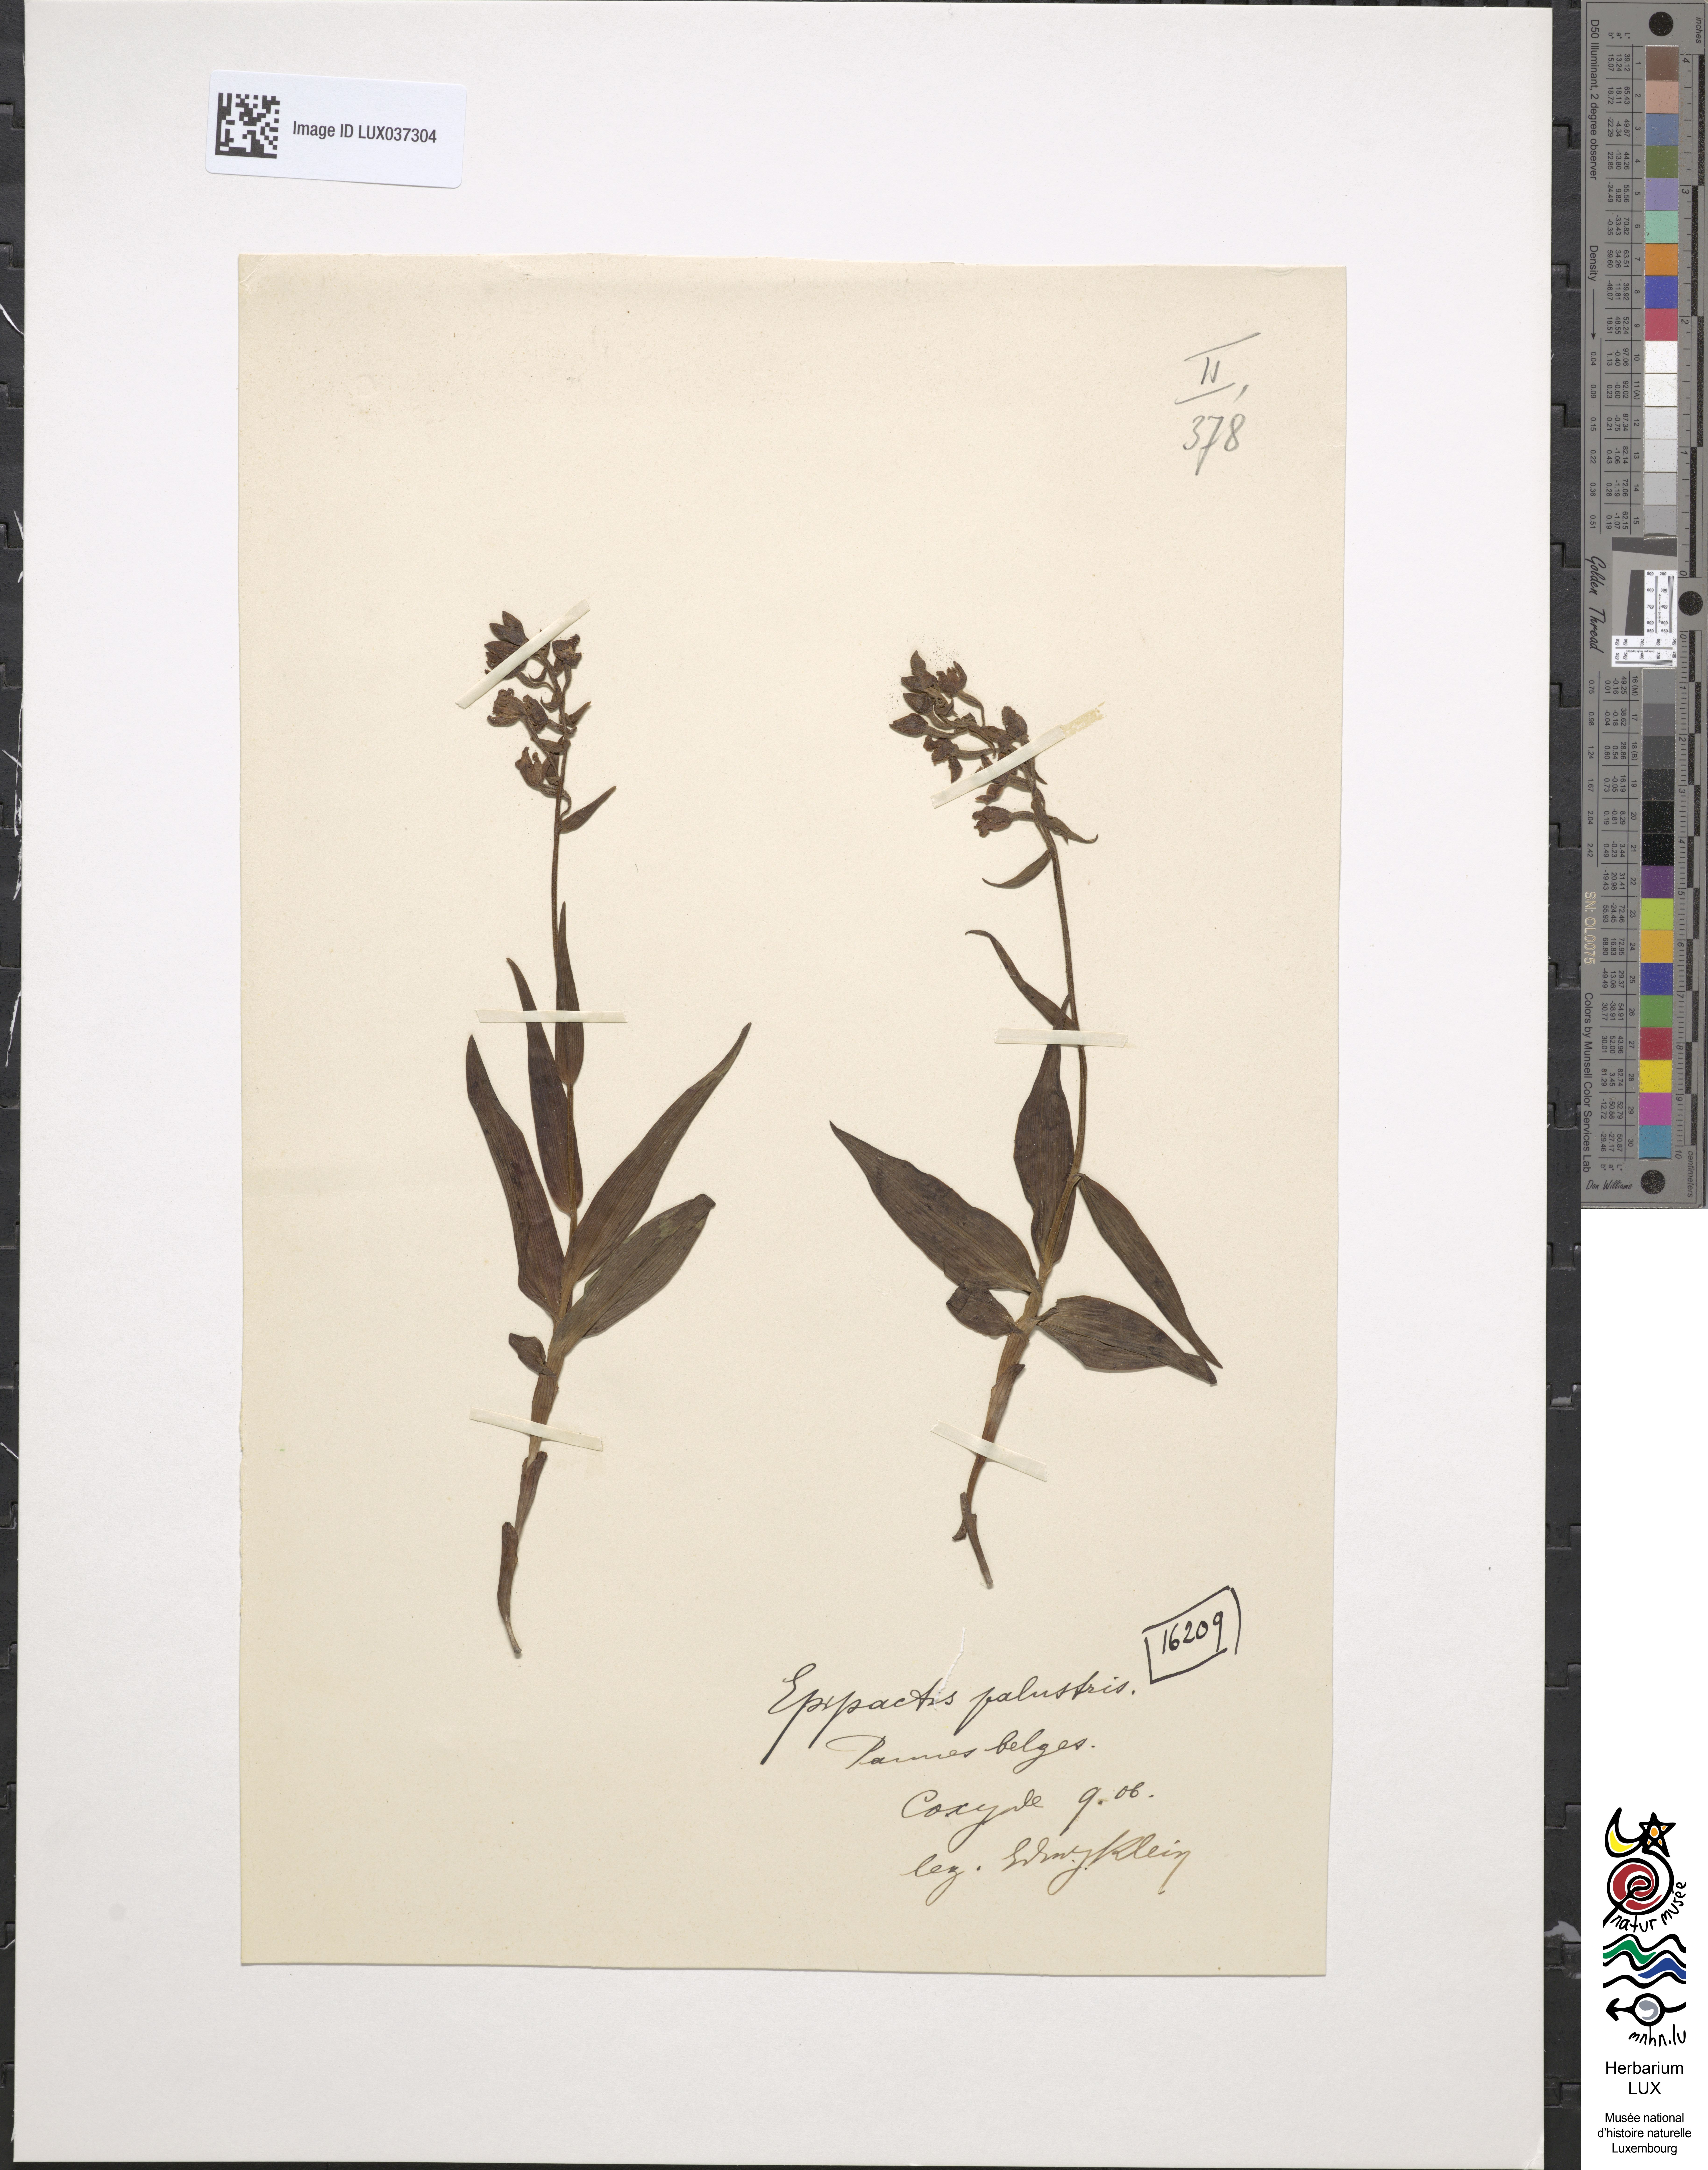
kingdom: Plantae
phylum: Tracheophyta
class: Liliopsida
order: Asparagales
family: Orchidaceae
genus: Epipactis
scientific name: Epipactis palustris
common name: Marsh helleborine
